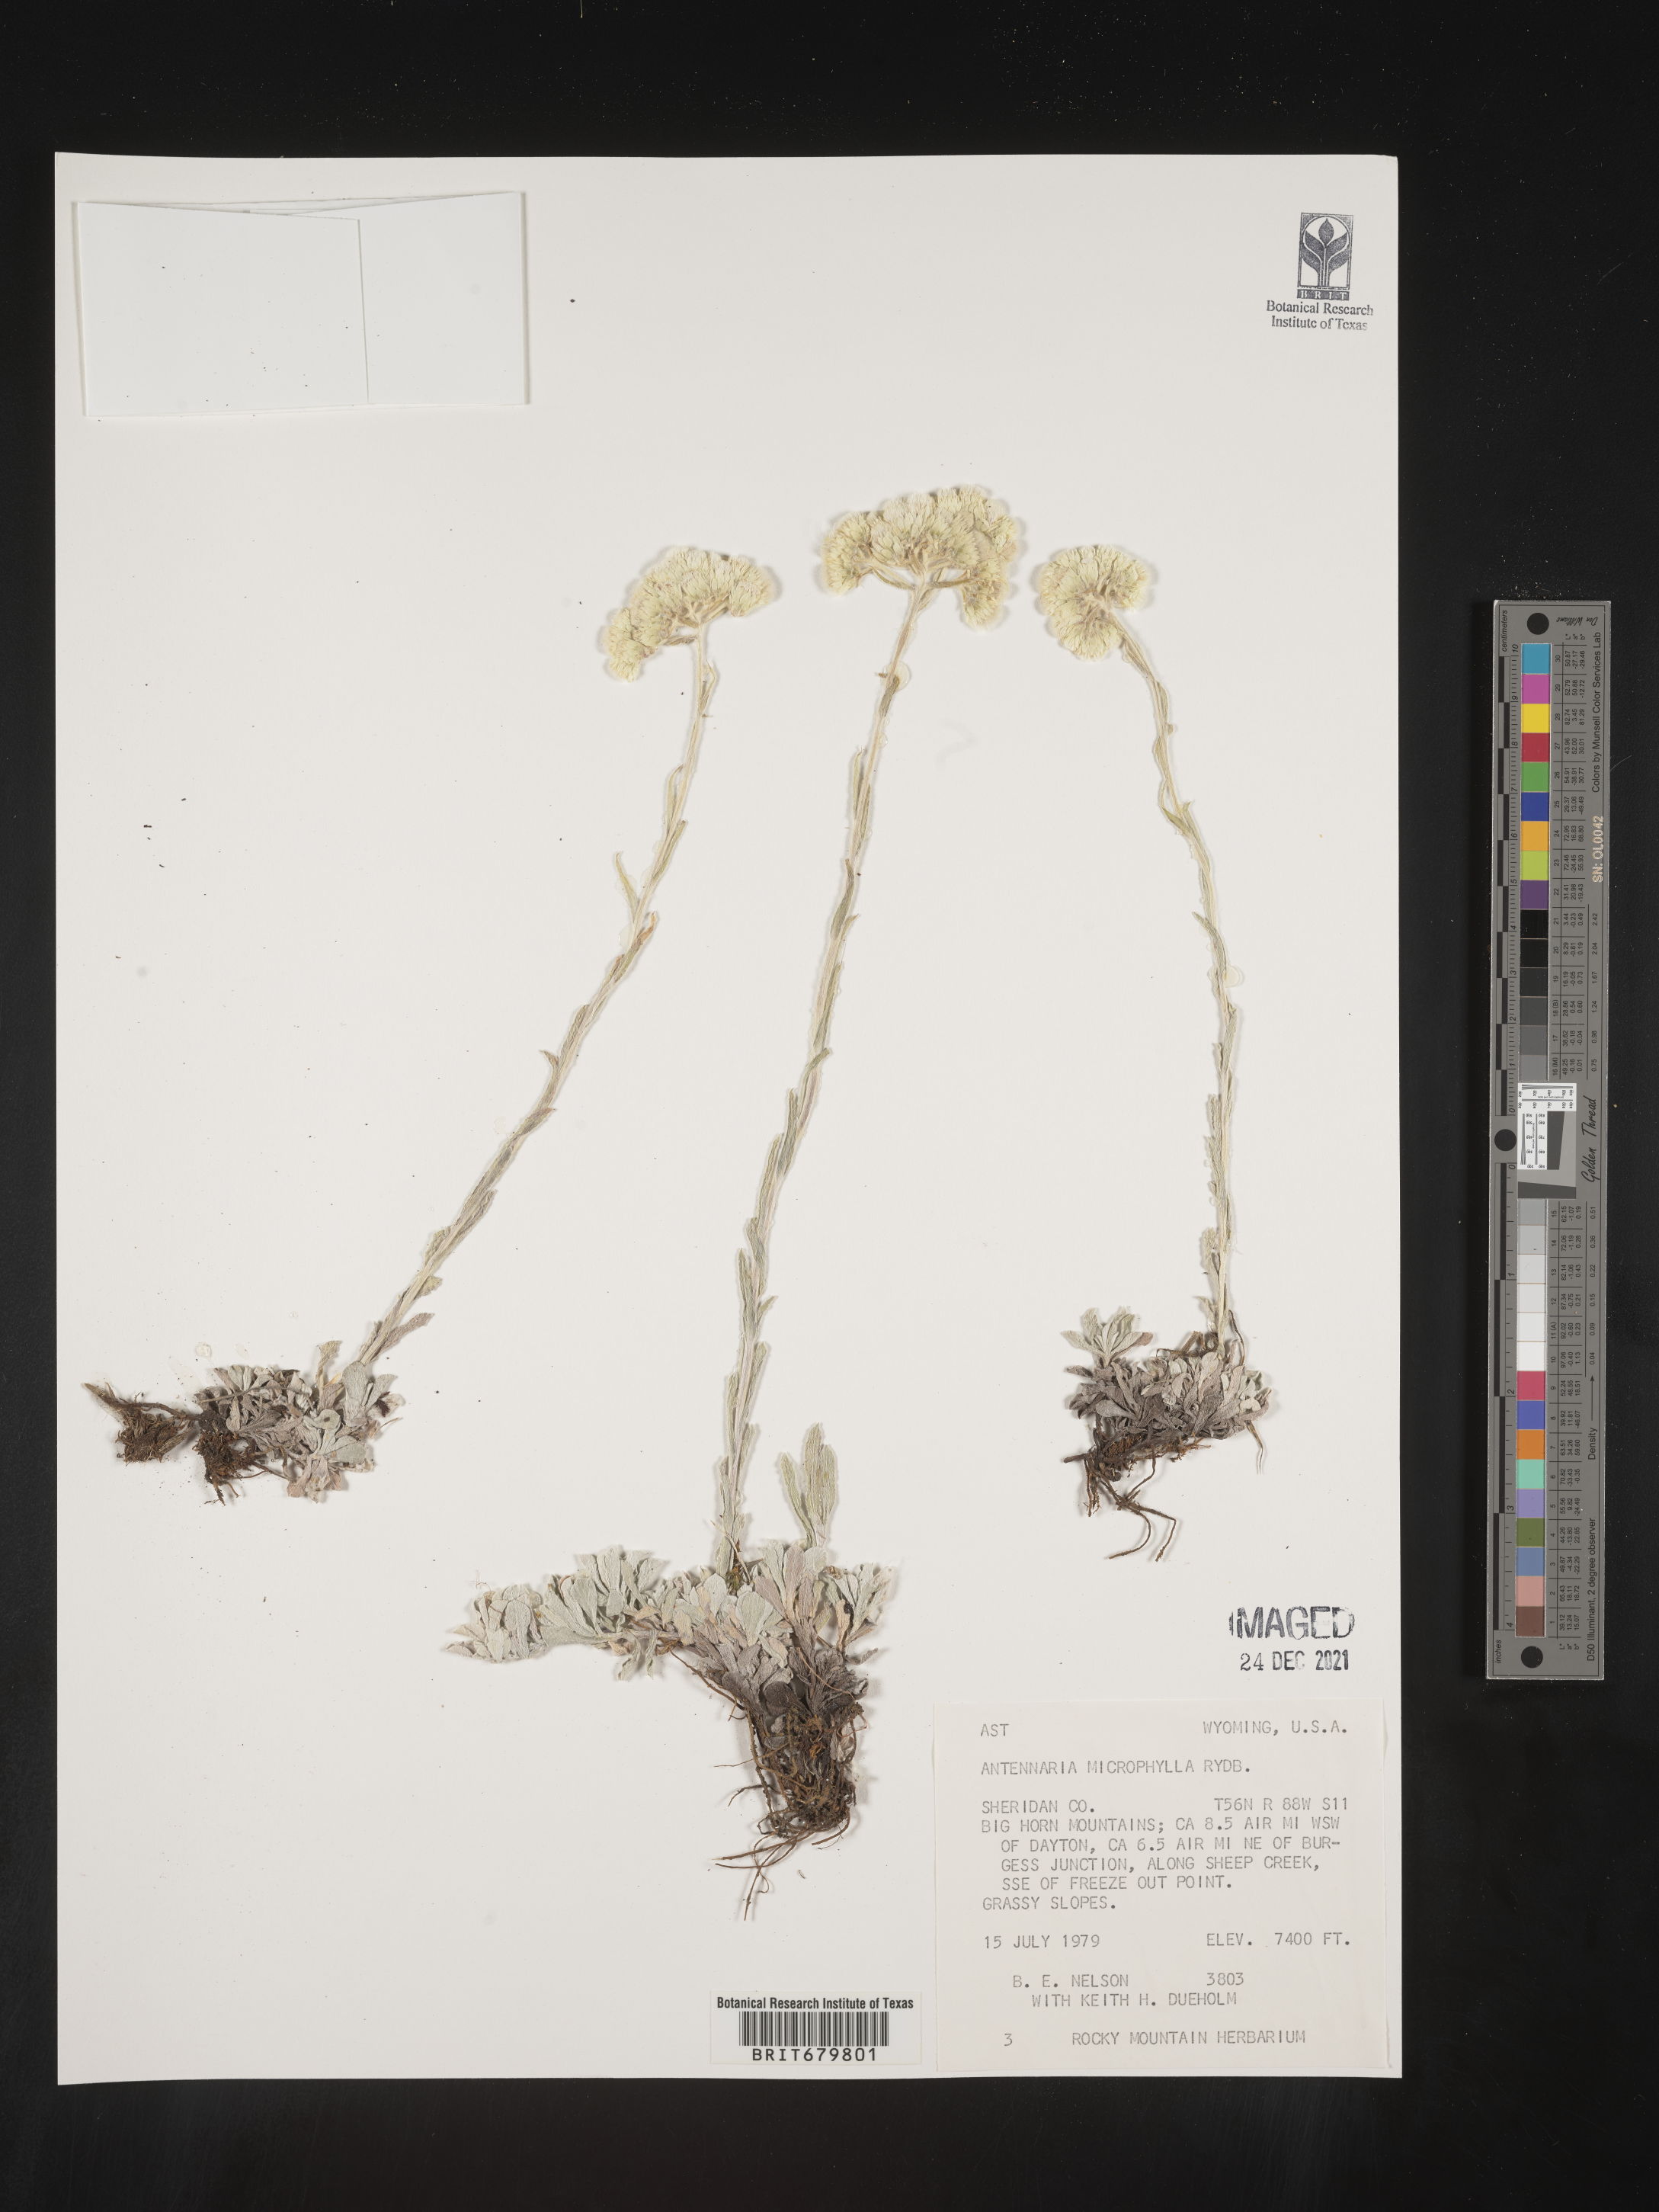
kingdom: Plantae
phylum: Tracheophyta
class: Magnoliopsida
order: Asterales
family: Asteraceae
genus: Antennaria
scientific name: Antennaria microphylla
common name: Littleleaf pussytoes
